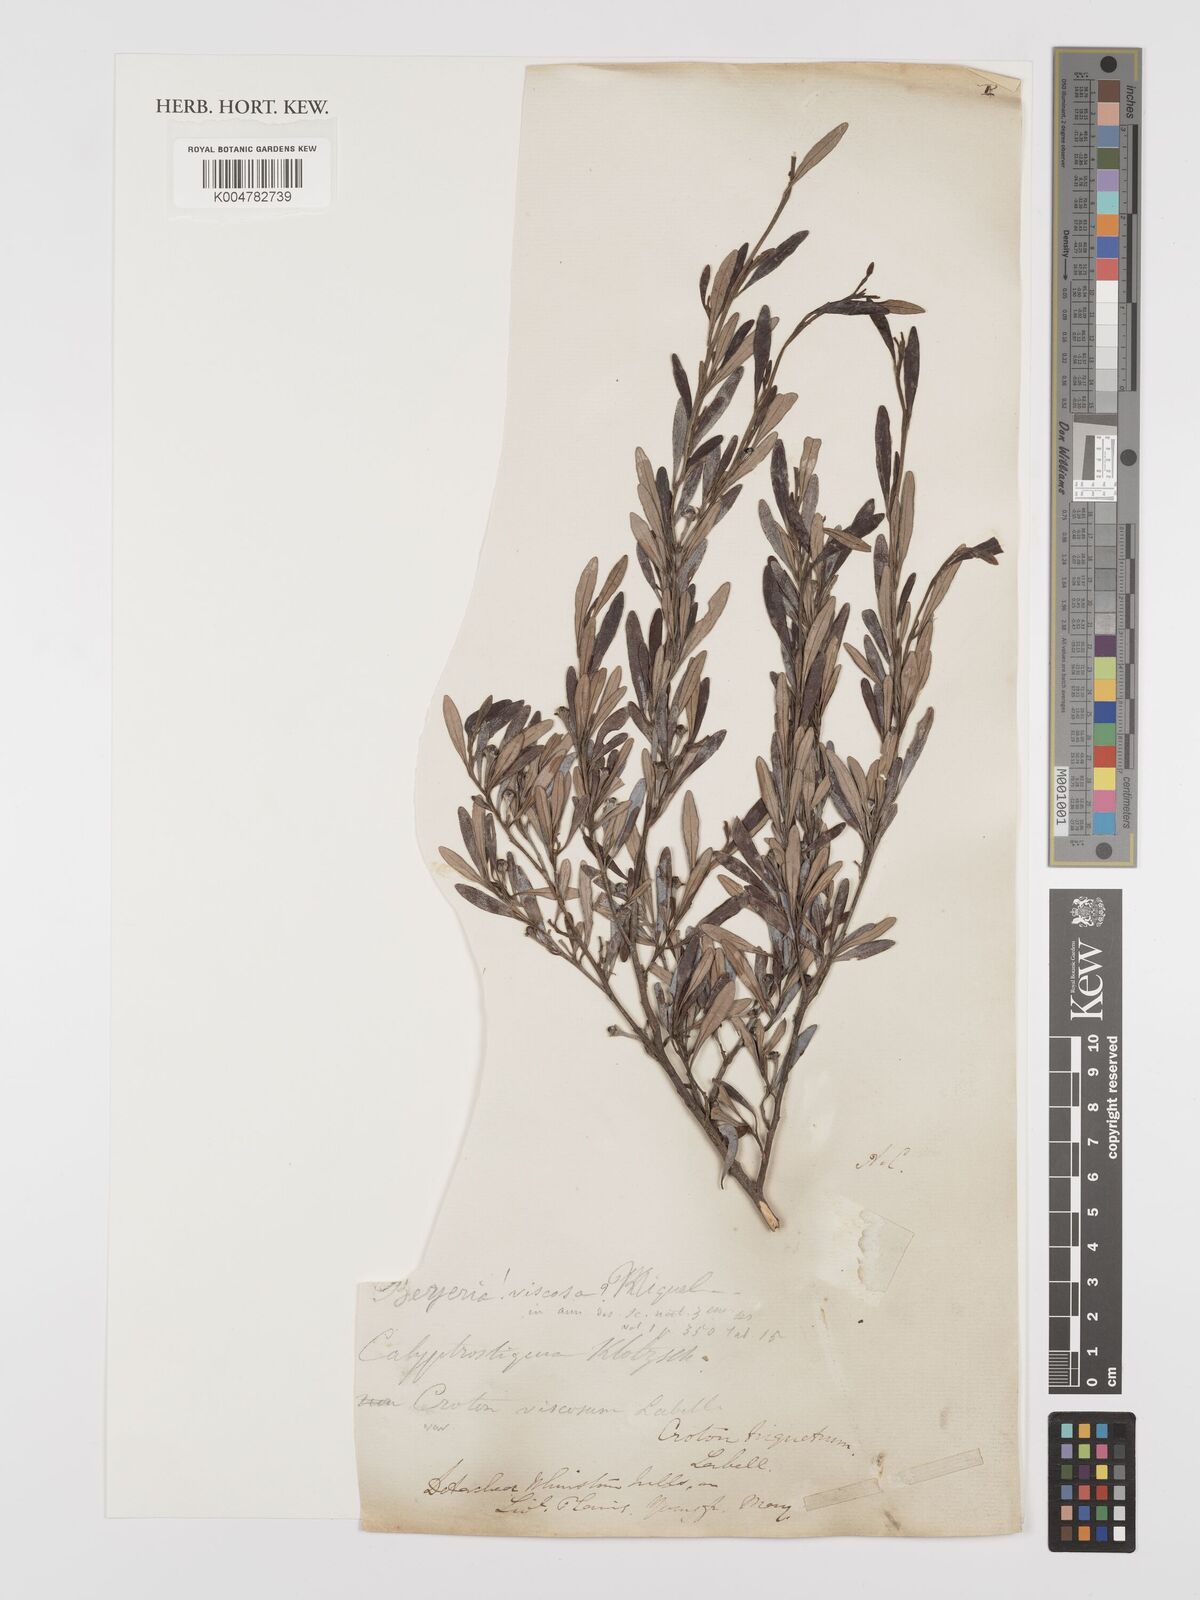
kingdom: Plantae
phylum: Tracheophyta
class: Magnoliopsida
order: Malpighiales
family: Euphorbiaceae
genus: Beyeria
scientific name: Beyeria viscosa
